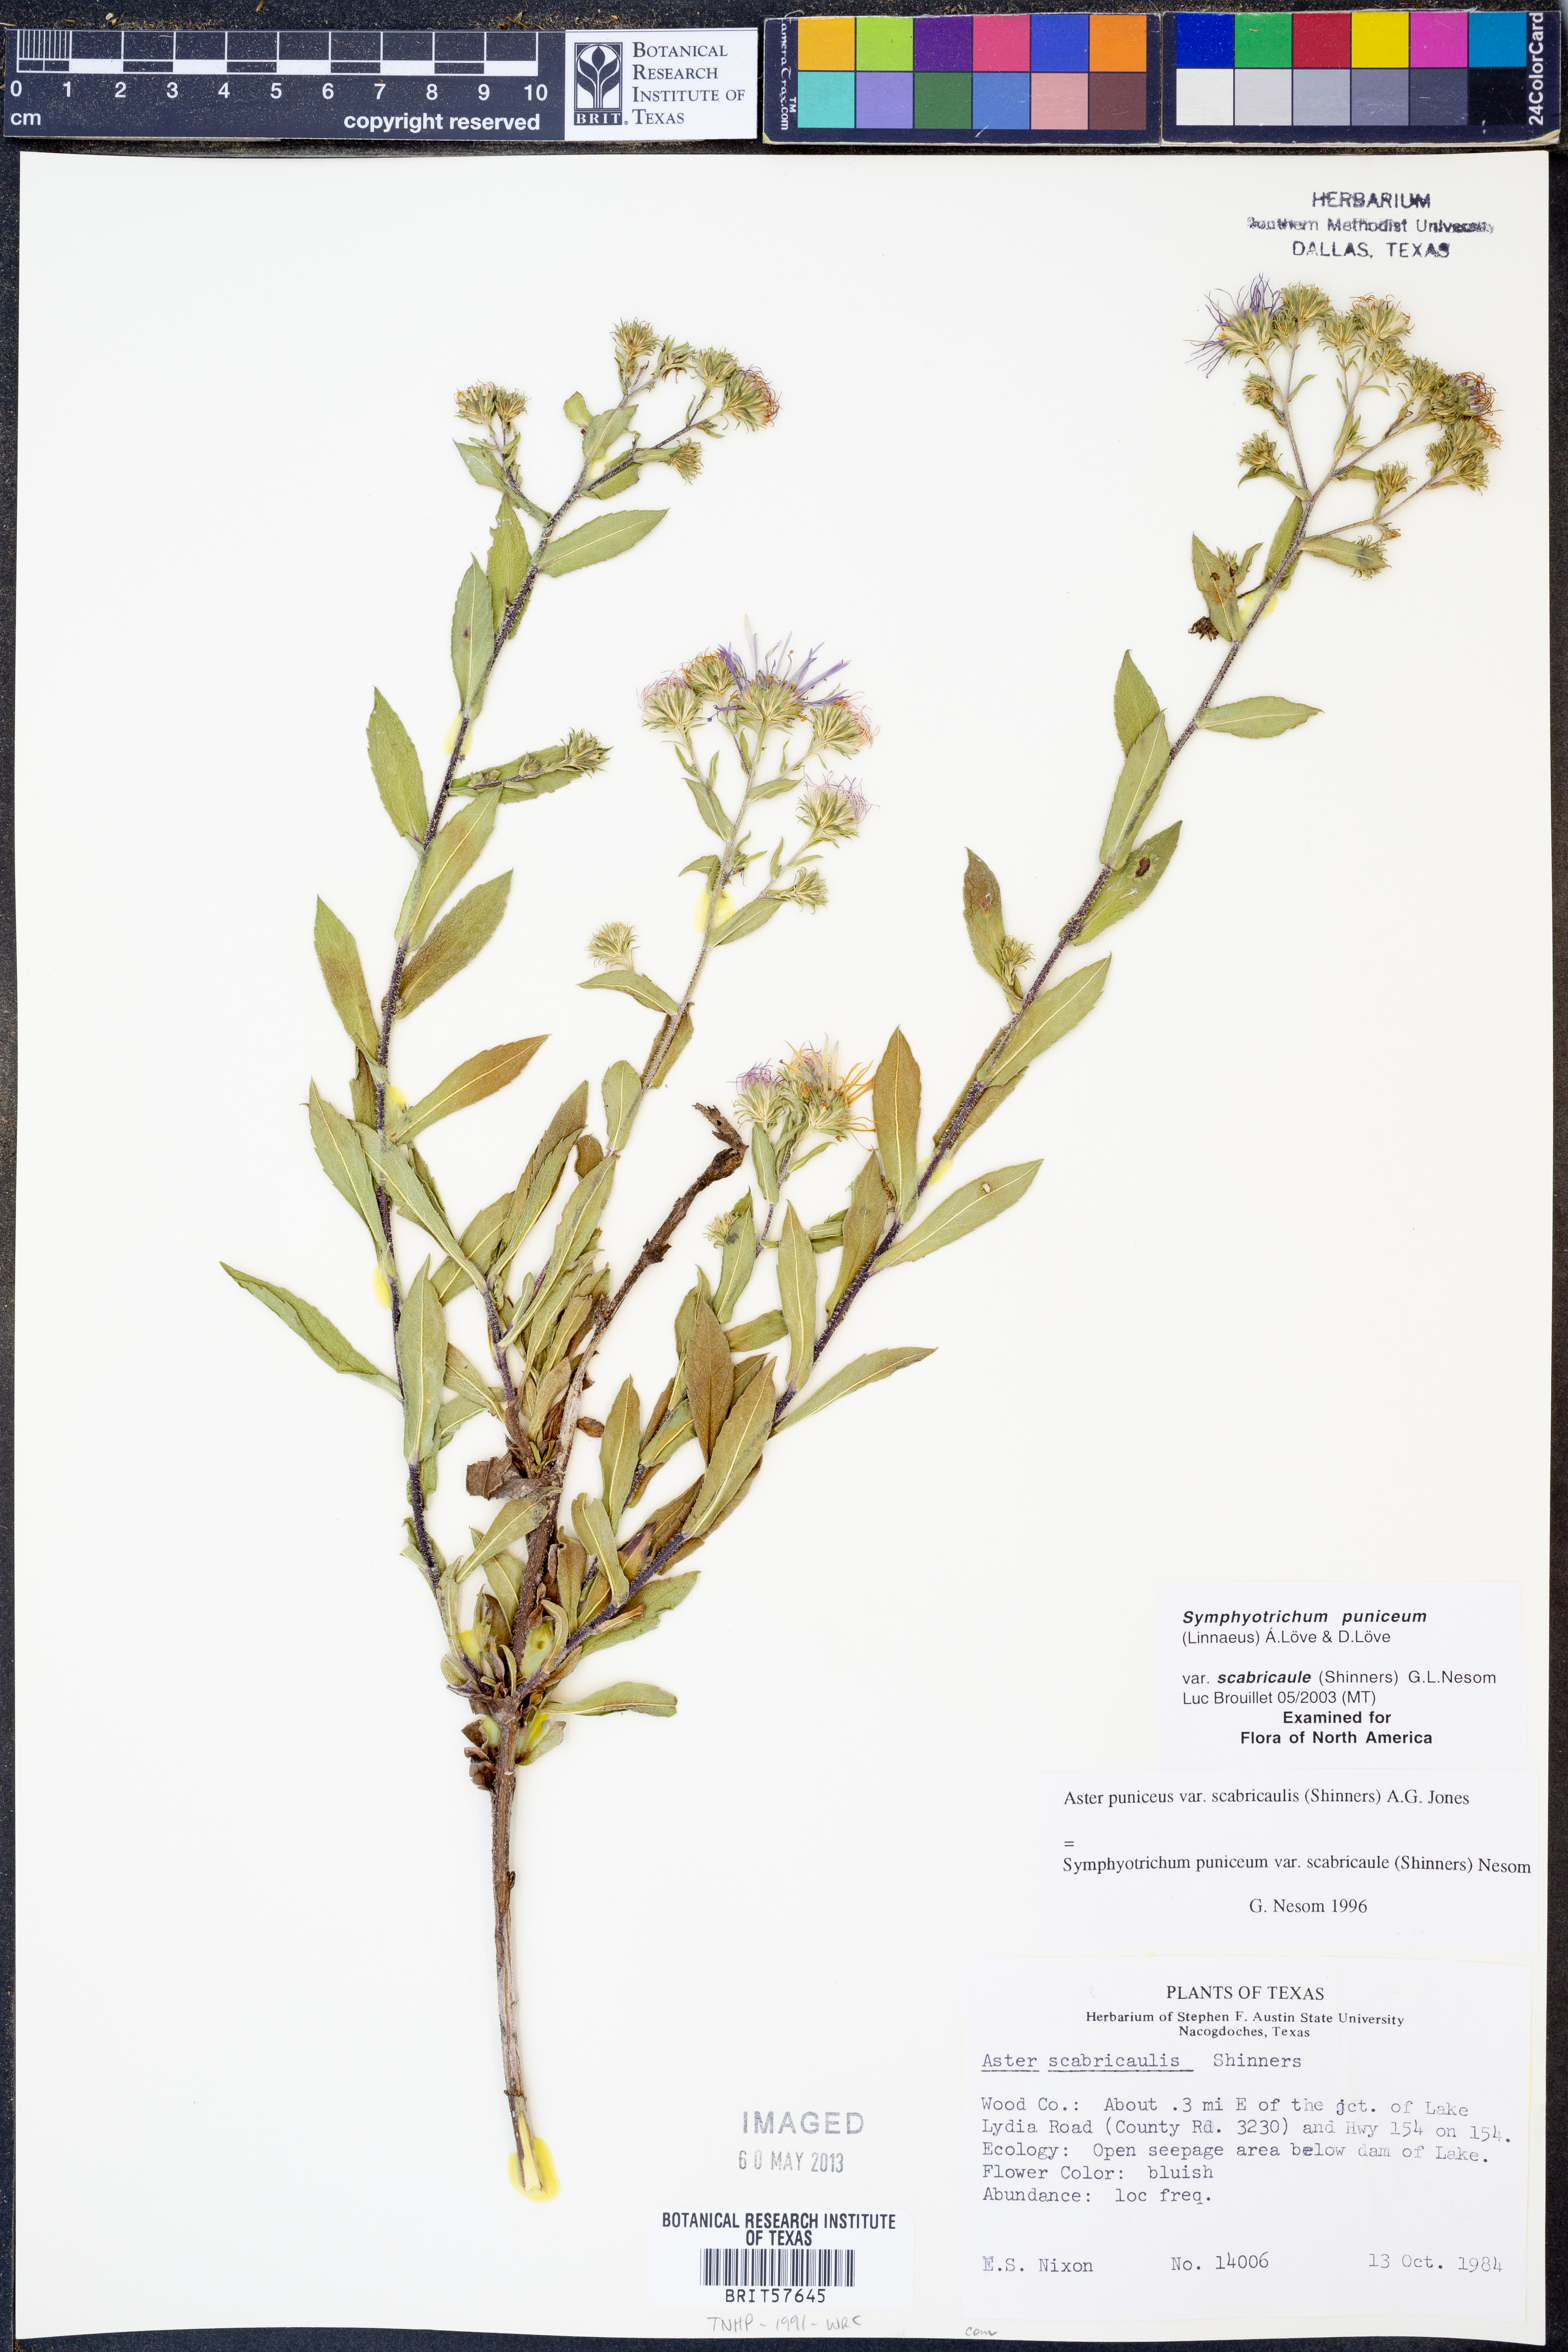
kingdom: Plantae
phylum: Tracheophyta
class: Magnoliopsida
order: Asterales
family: Asteraceae
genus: Symphyotrichum
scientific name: Symphyotrichum puniceum
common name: Bog aster
